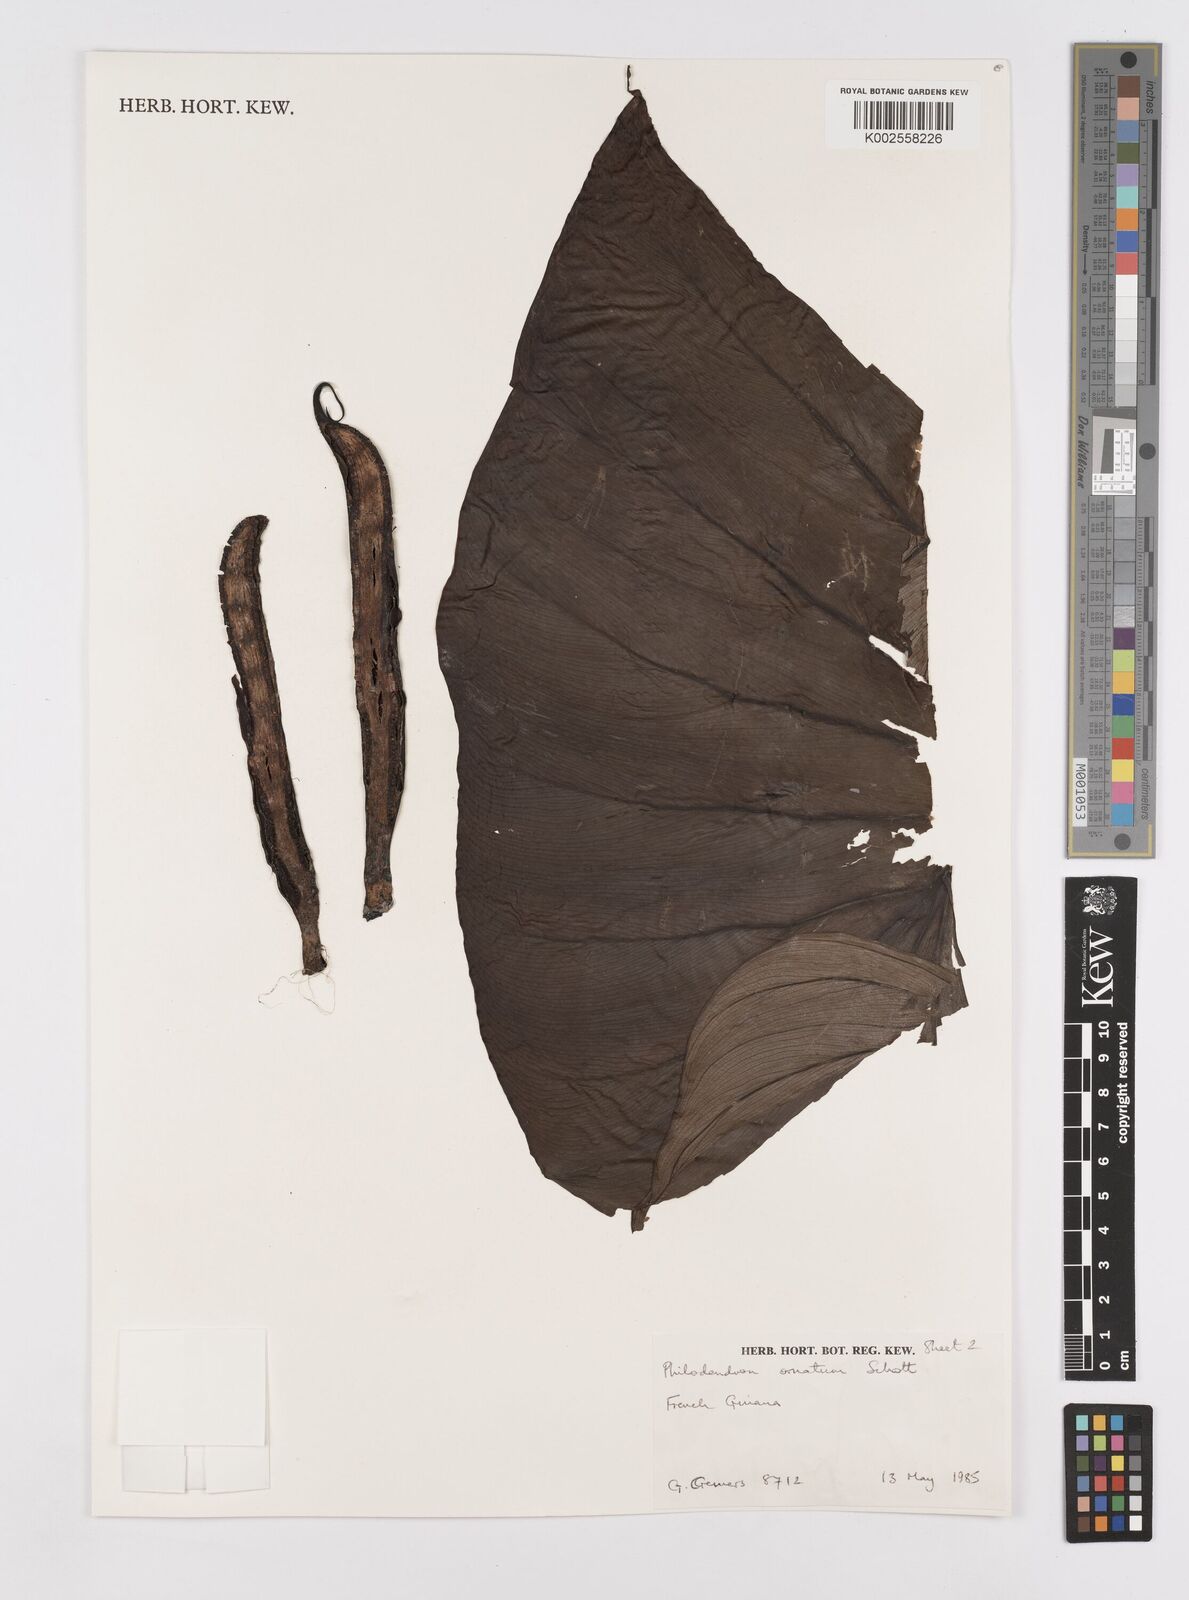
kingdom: Plantae
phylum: Tracheophyta
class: Liliopsida
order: Alismatales
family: Araceae
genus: Philodendron
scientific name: Philodendron ornatum
